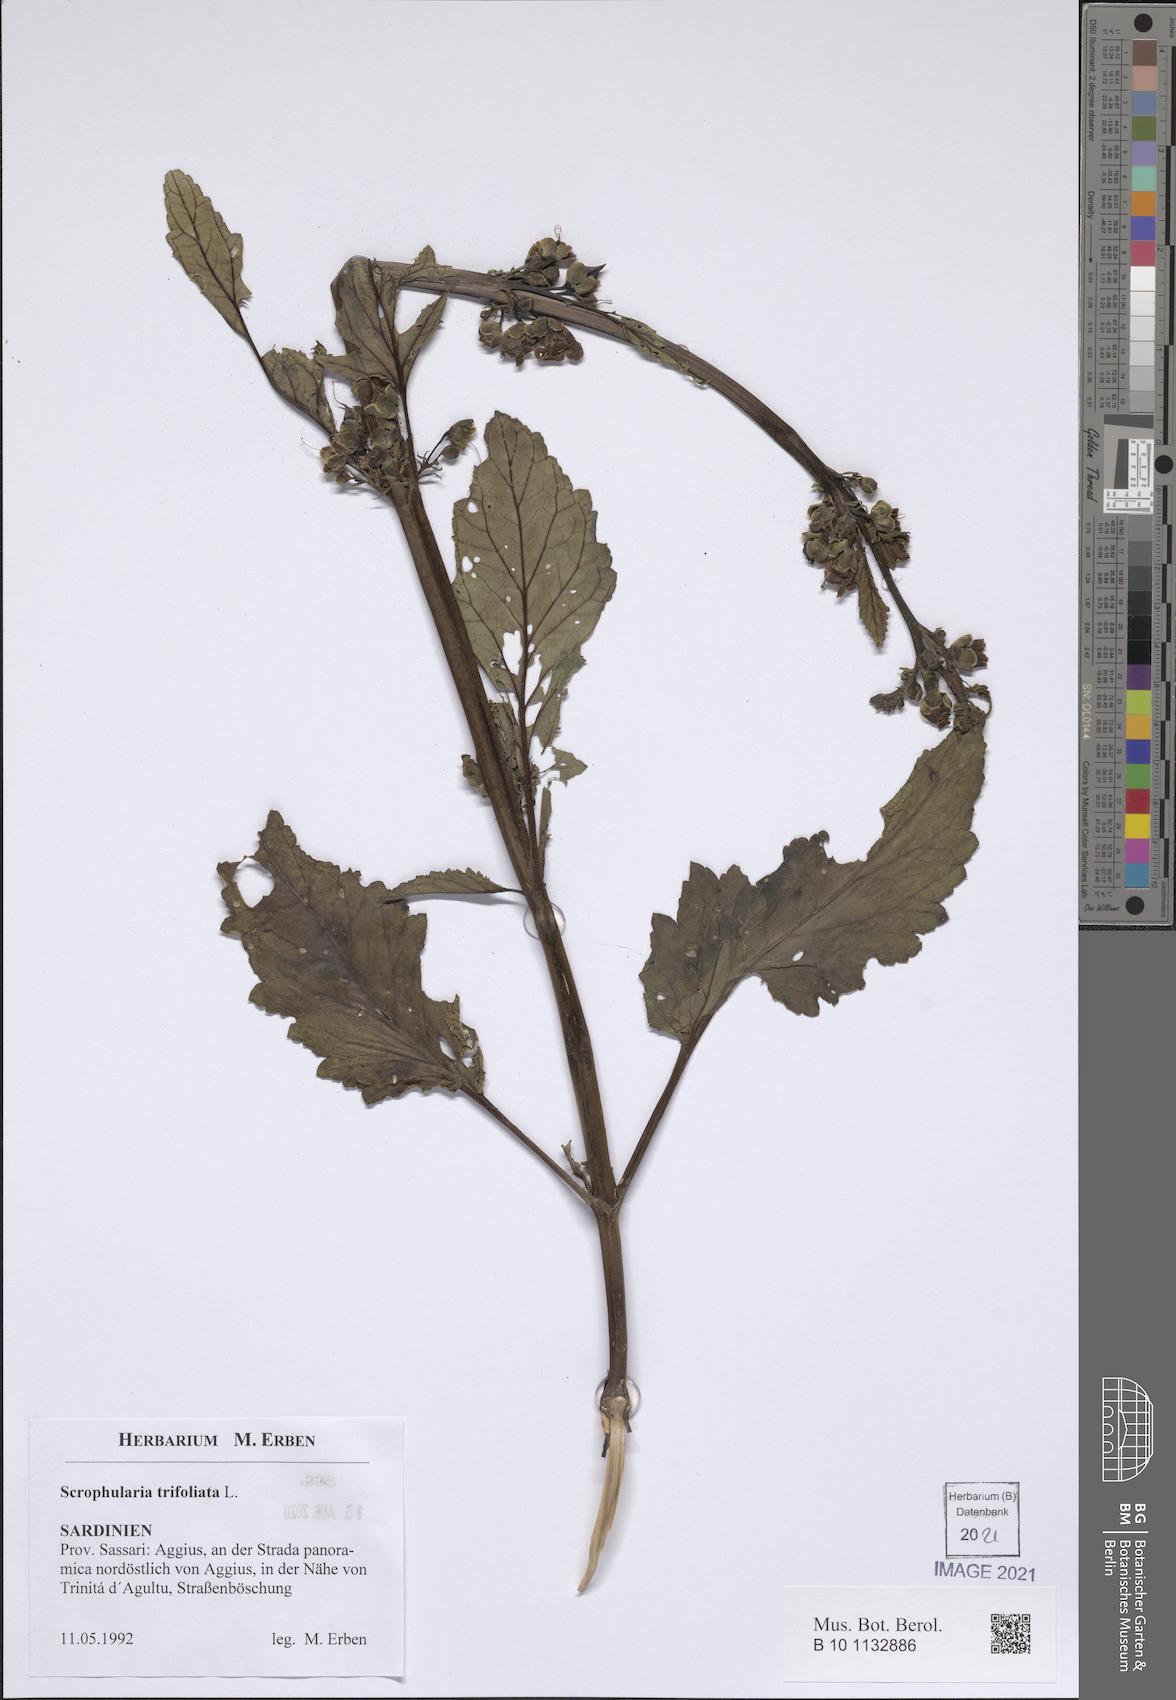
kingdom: Plantae
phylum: Tracheophyta
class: Magnoliopsida
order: Gentianales
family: Gentianaceae
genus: Centaurium
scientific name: Centaurium erythraea
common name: Common centaury
